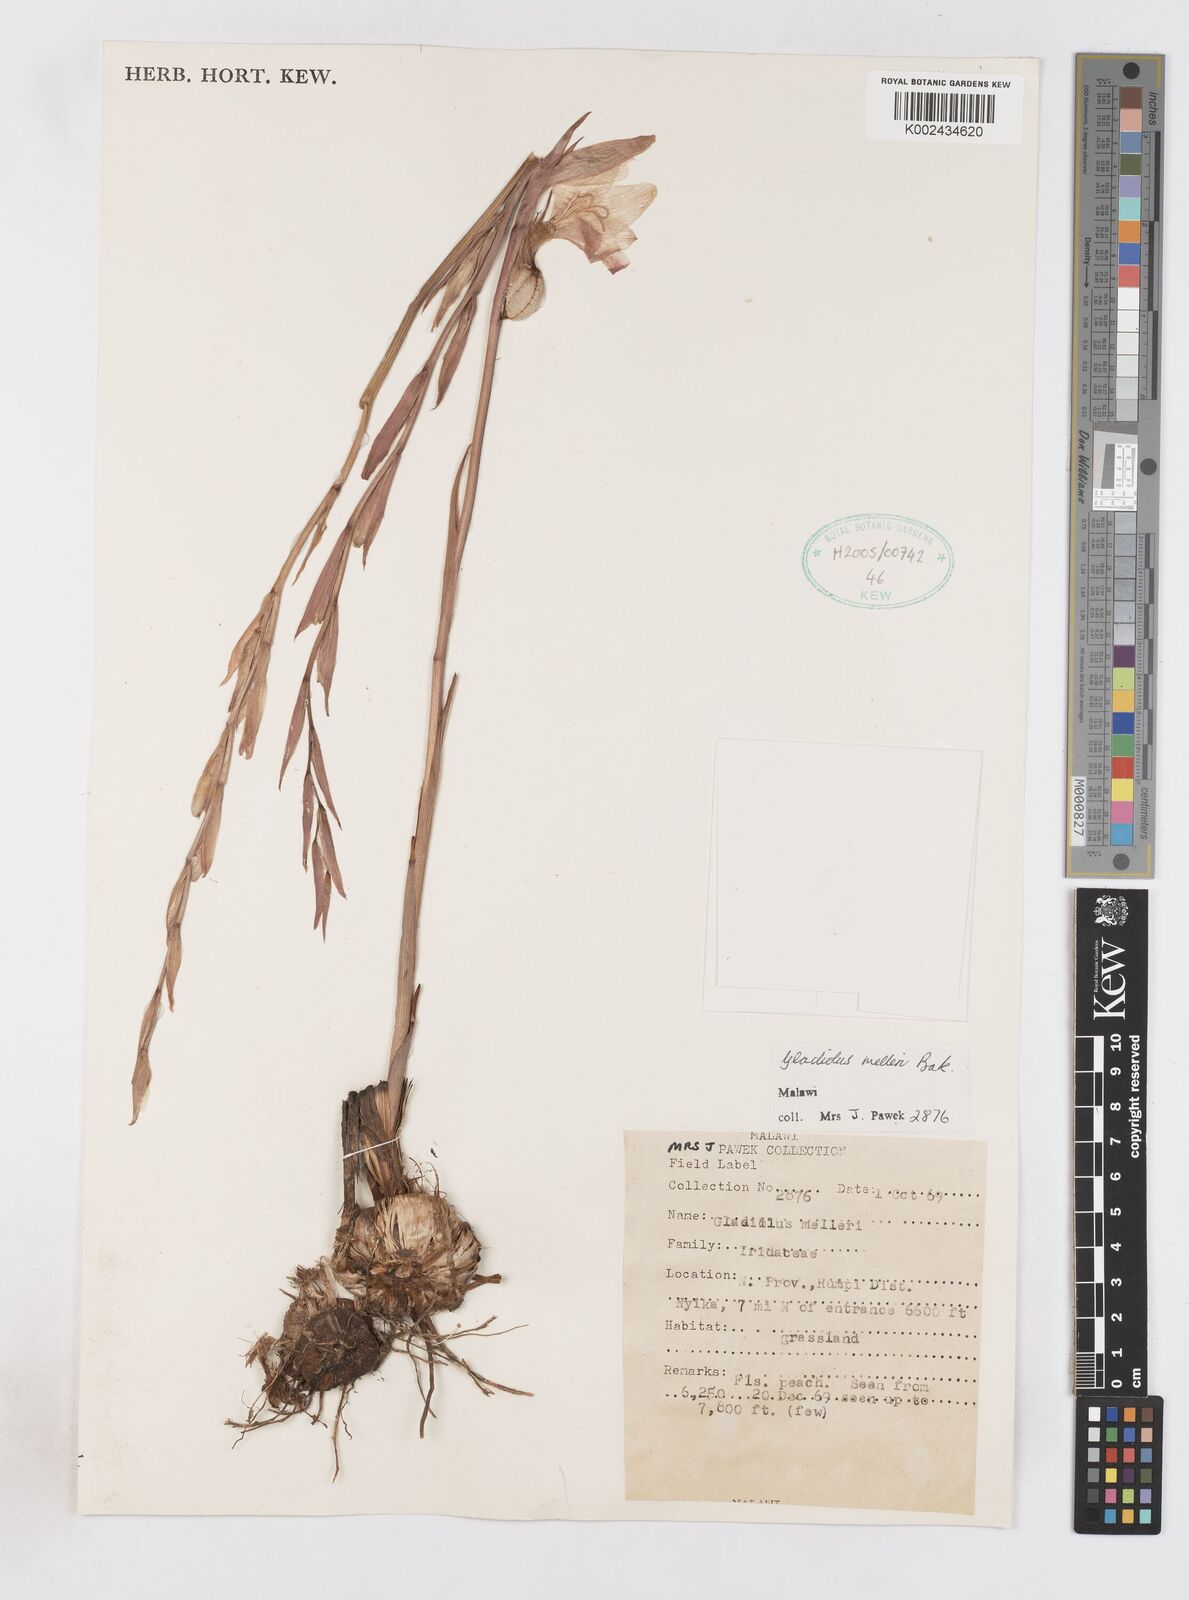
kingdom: Plantae
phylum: Tracheophyta
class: Liliopsida
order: Asparagales
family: Iridaceae
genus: Gladiolus
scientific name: Gladiolus melleri
